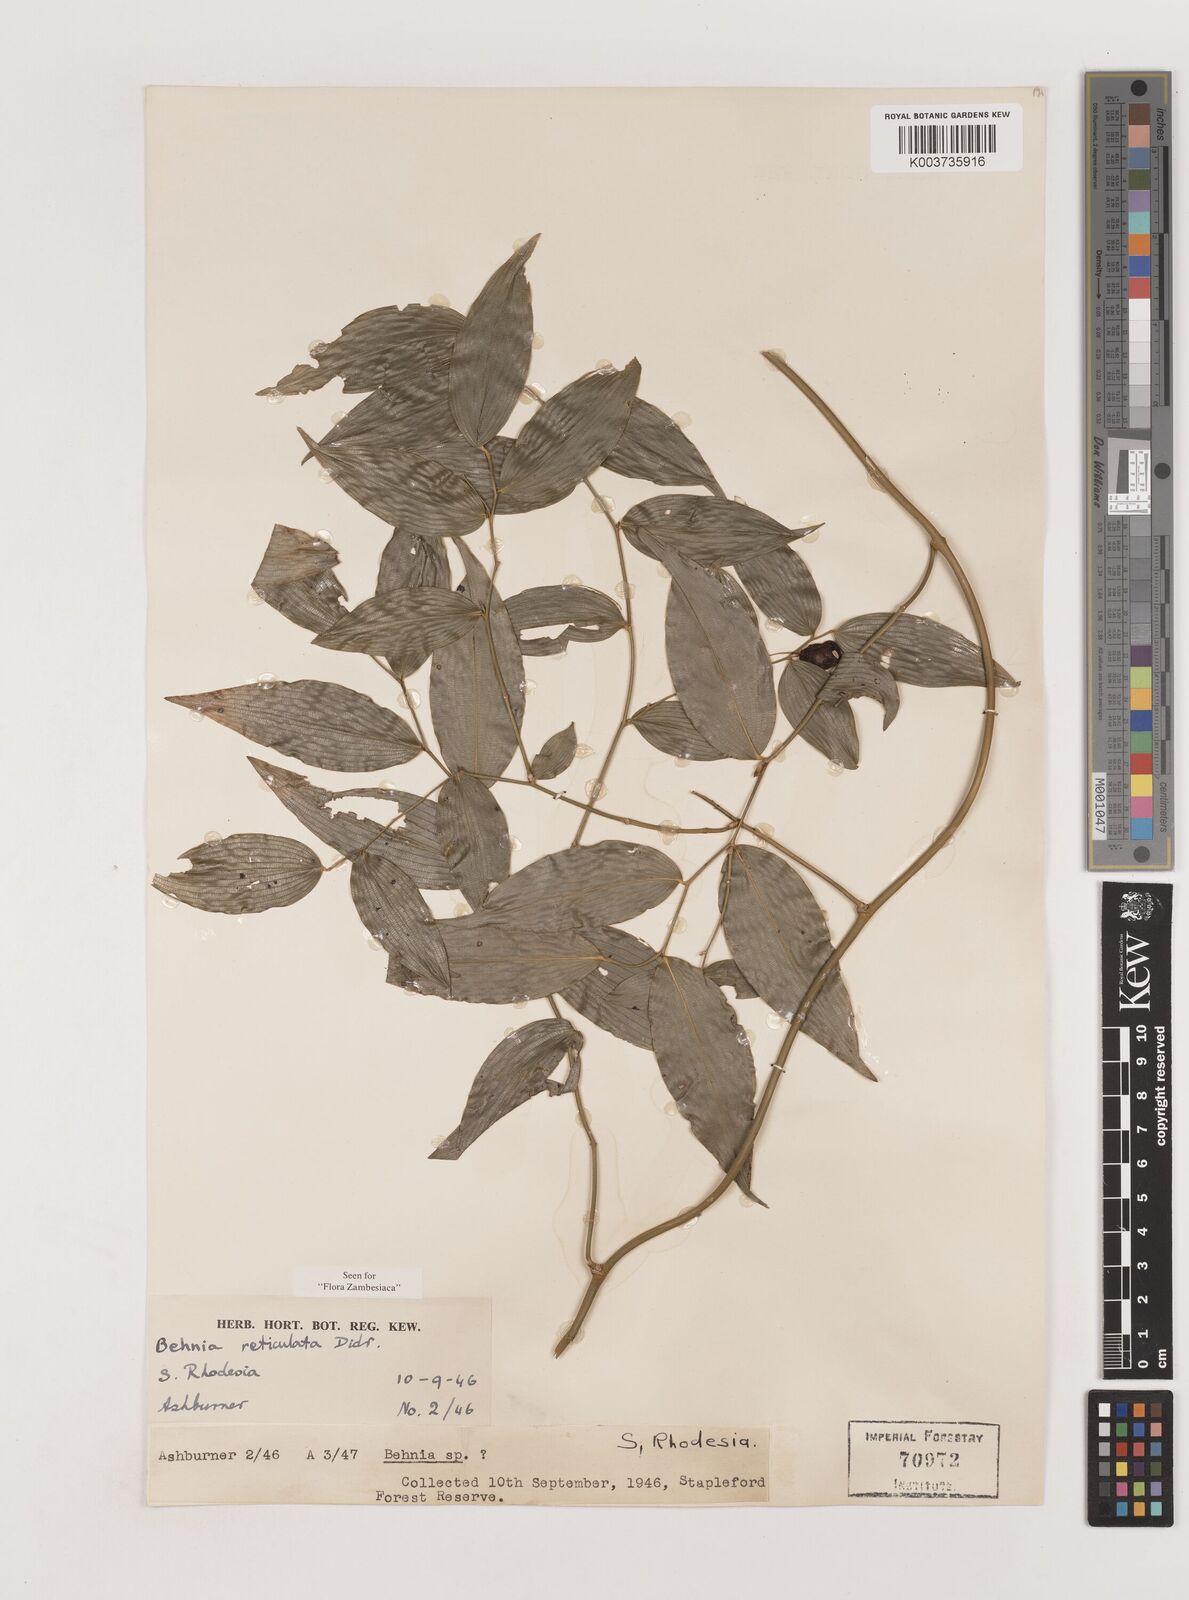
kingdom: Plantae
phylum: Tracheophyta
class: Liliopsida
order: Asparagales
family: Asparagaceae
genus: Behnia
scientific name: Behnia reticulata
